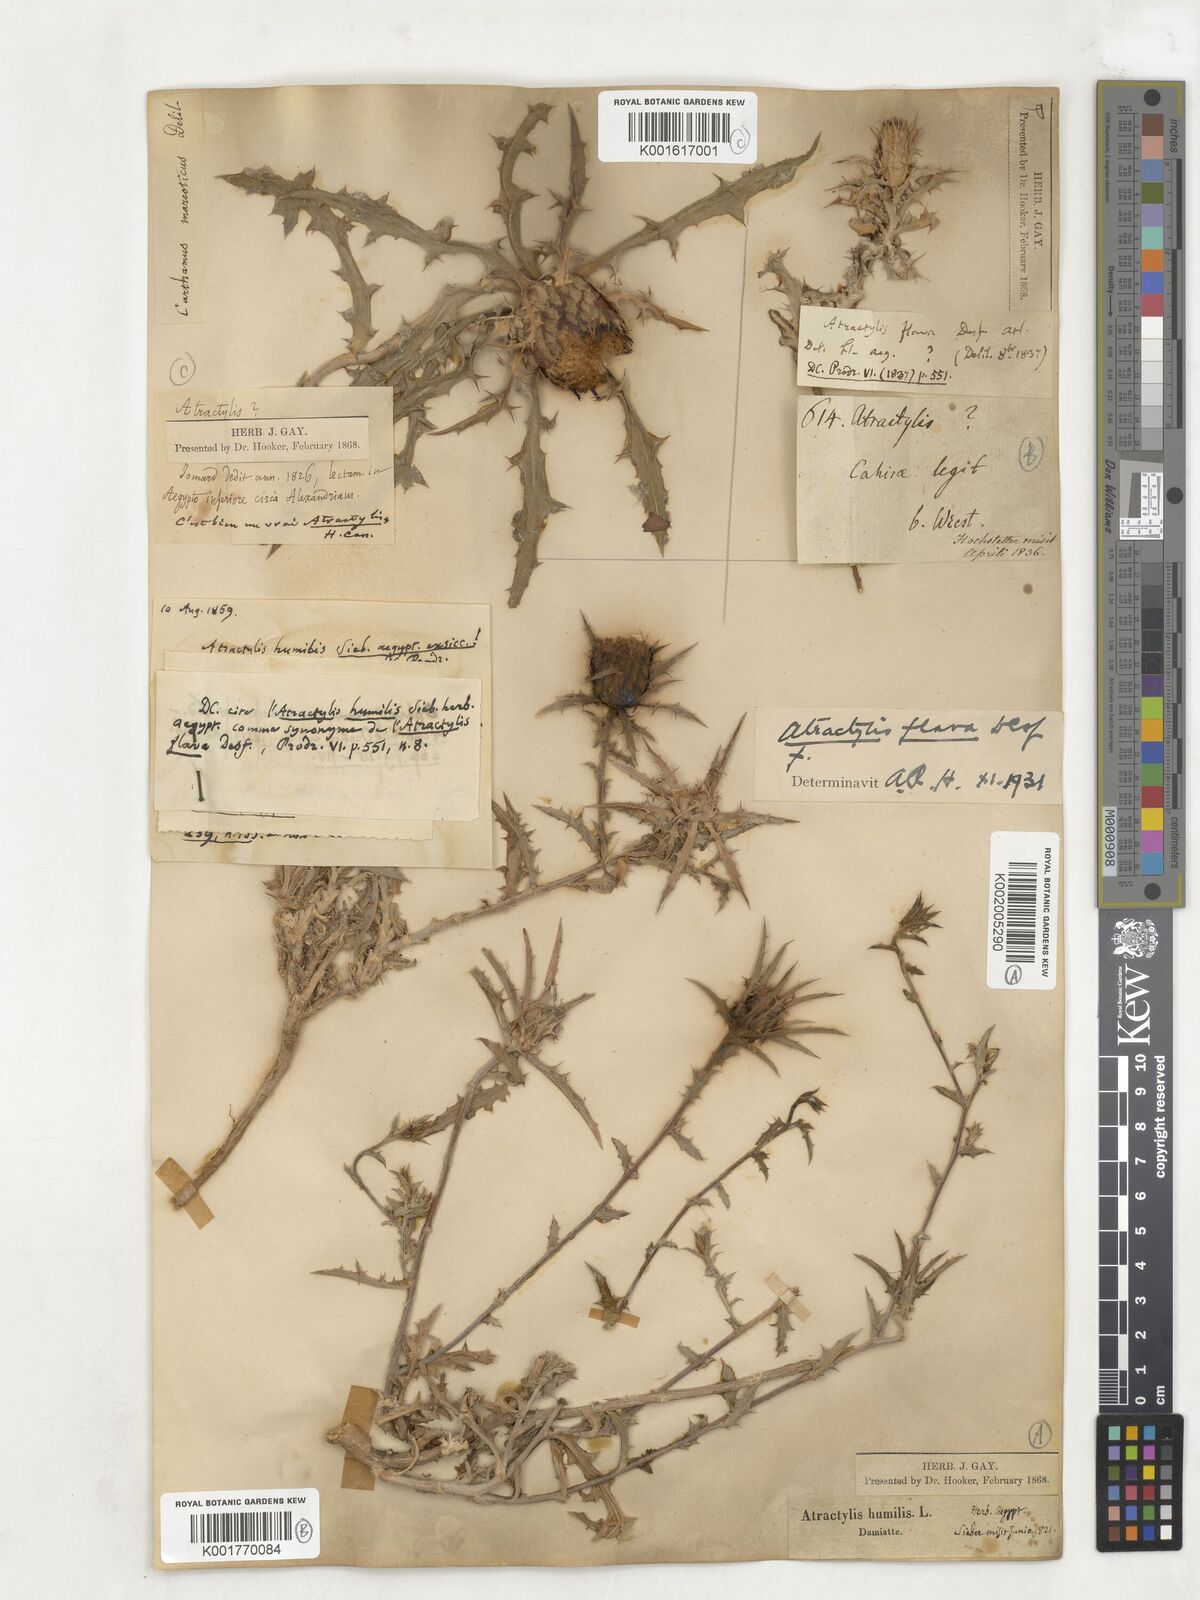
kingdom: Plantae
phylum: Tracheophyta
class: Magnoliopsida
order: Asterales
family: Asteraceae
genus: Phonus
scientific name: Phonus mareoticus
